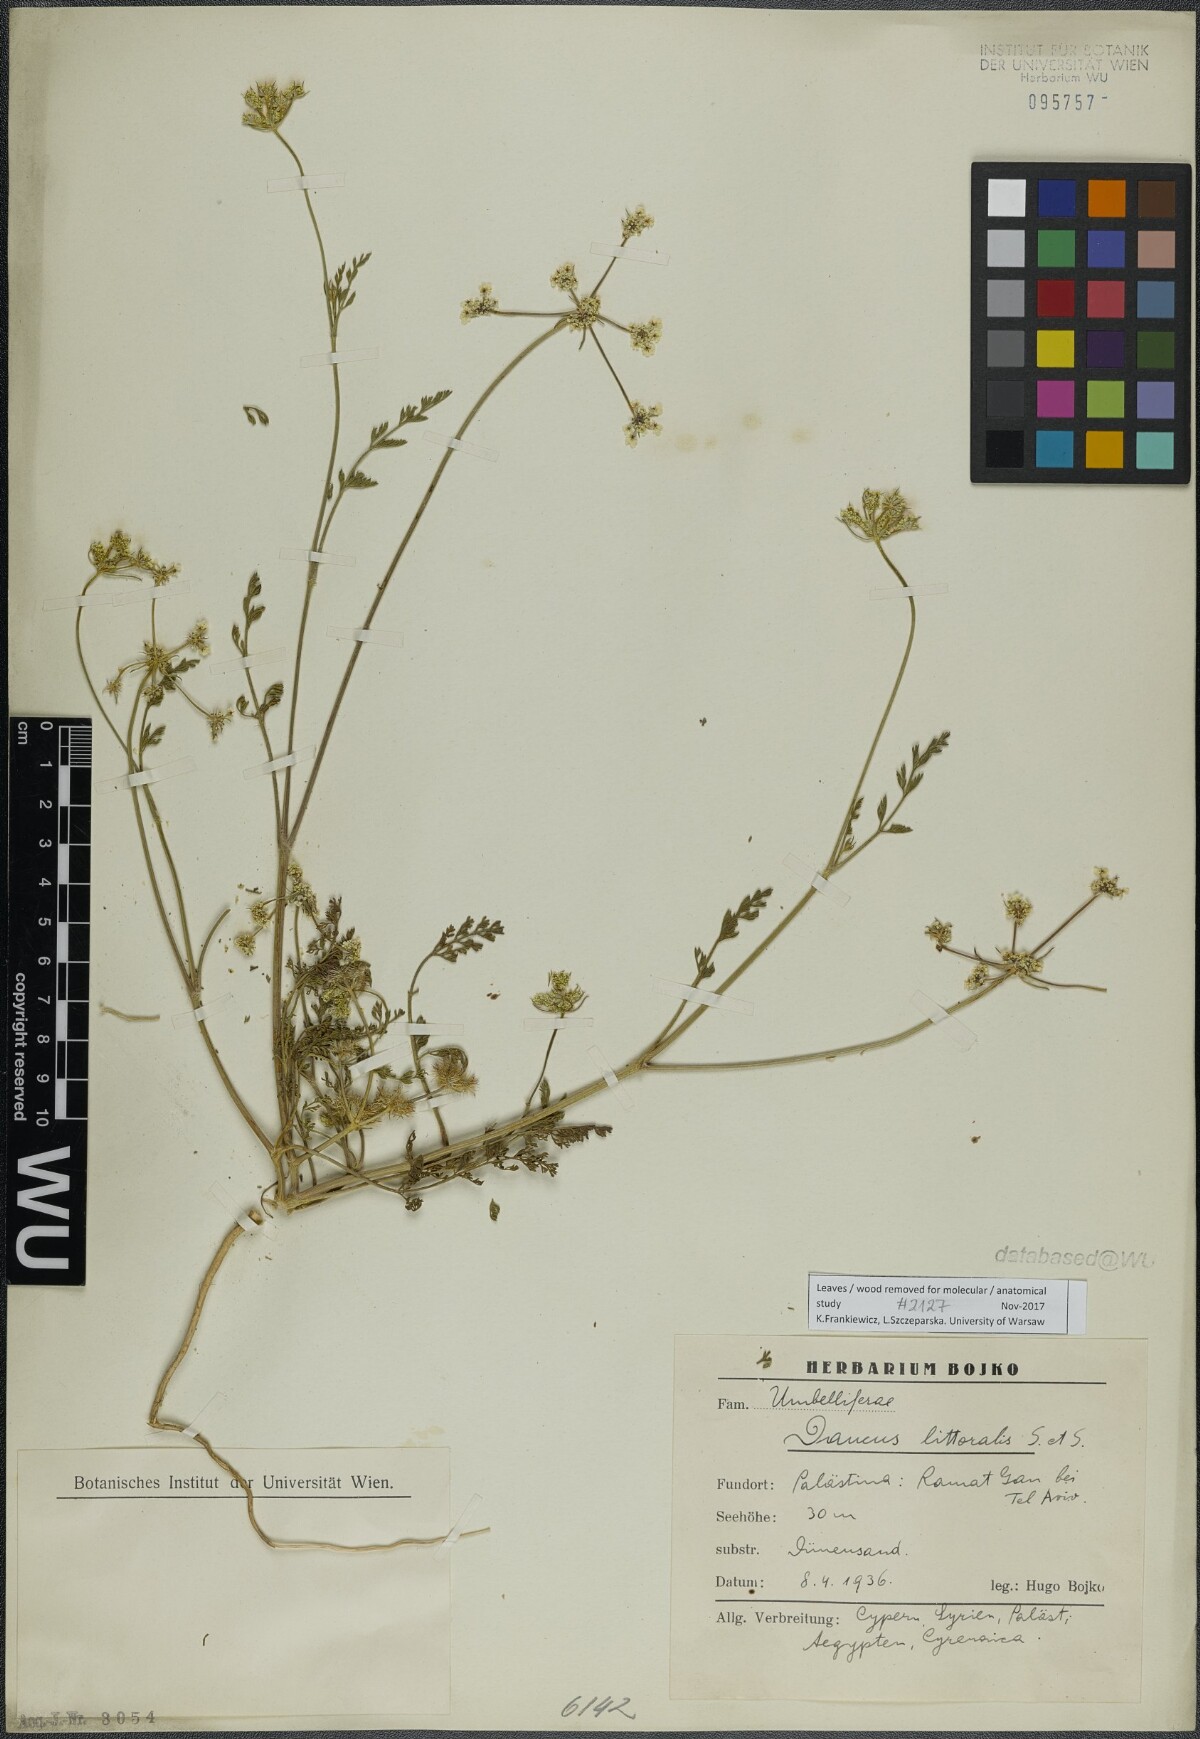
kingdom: Plantae
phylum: Tracheophyta
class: Magnoliopsida
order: Apiales
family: Apiaceae
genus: Daucus
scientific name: Daucus littoralis
